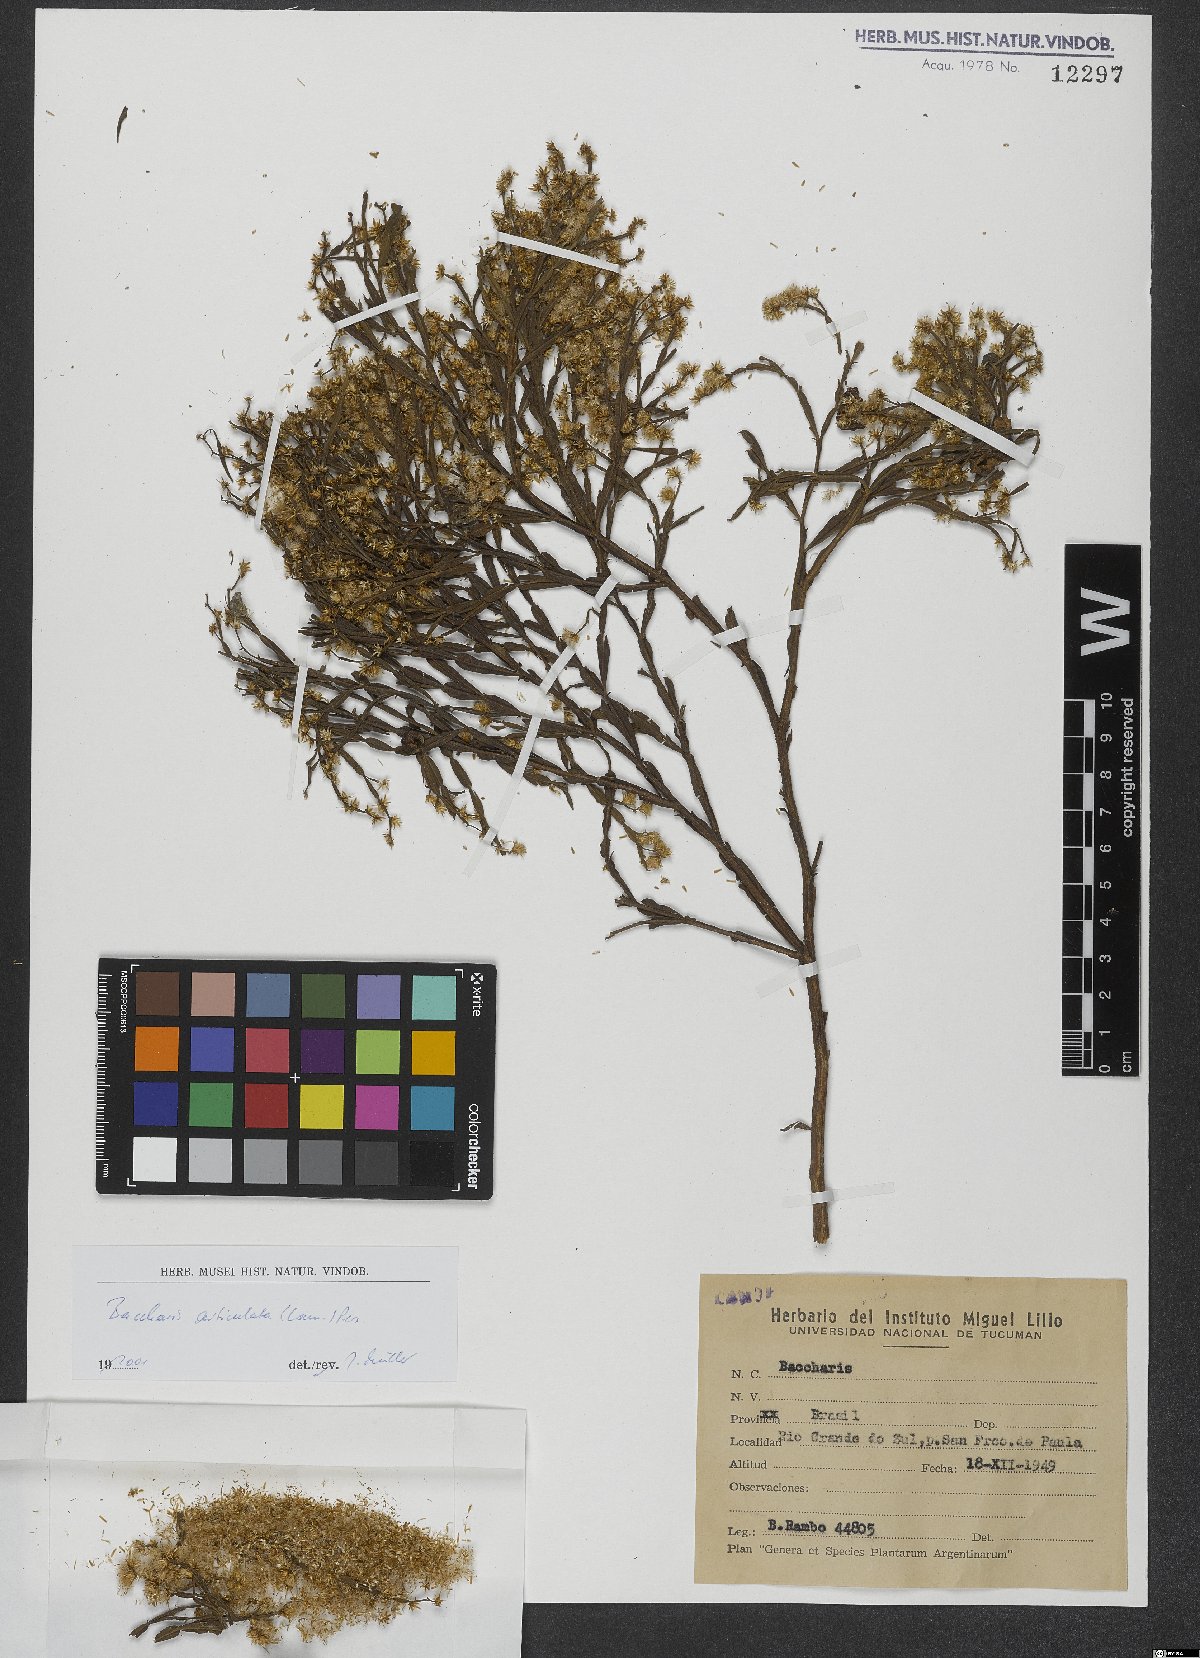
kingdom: Plantae
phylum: Tracheophyta
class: Magnoliopsida
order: Asterales
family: Asteraceae
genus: Baccharis
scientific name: Baccharis articulata
